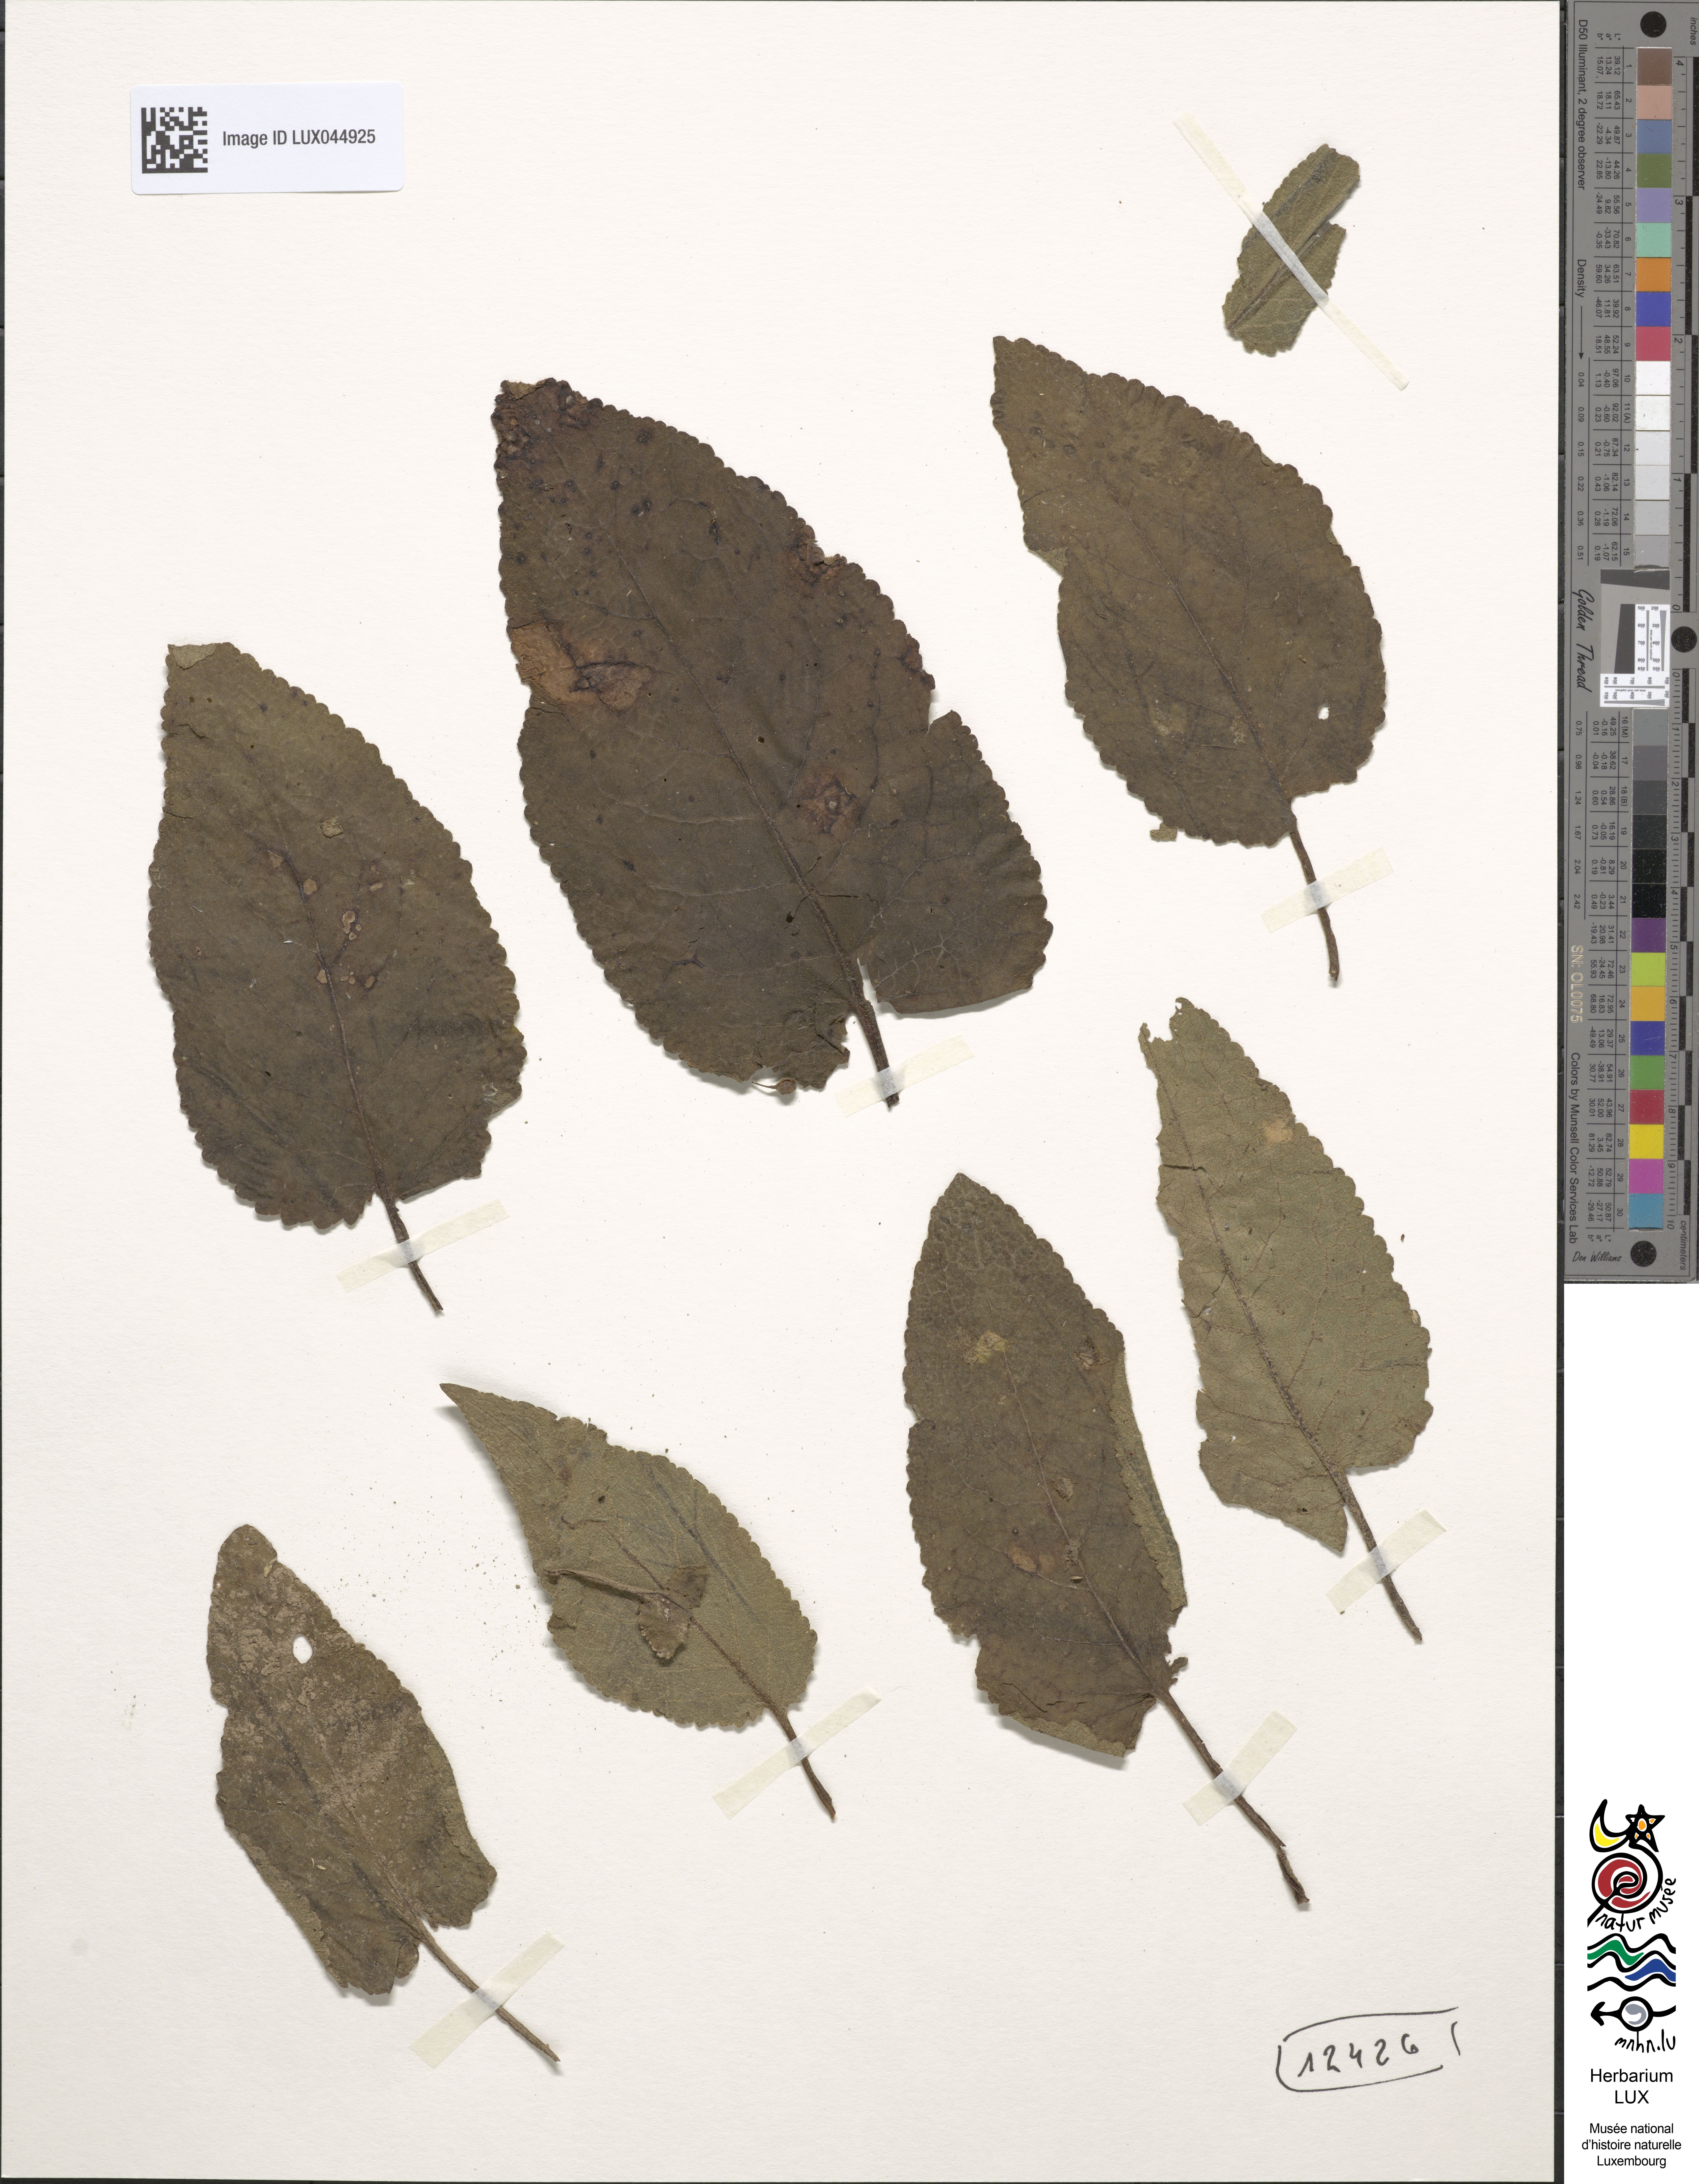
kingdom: Plantae
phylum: Tracheophyta
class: Magnoliopsida
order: Lamiales
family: Scrophulariaceae
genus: Verbascum
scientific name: Verbascum nigrum
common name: Dark mullein
